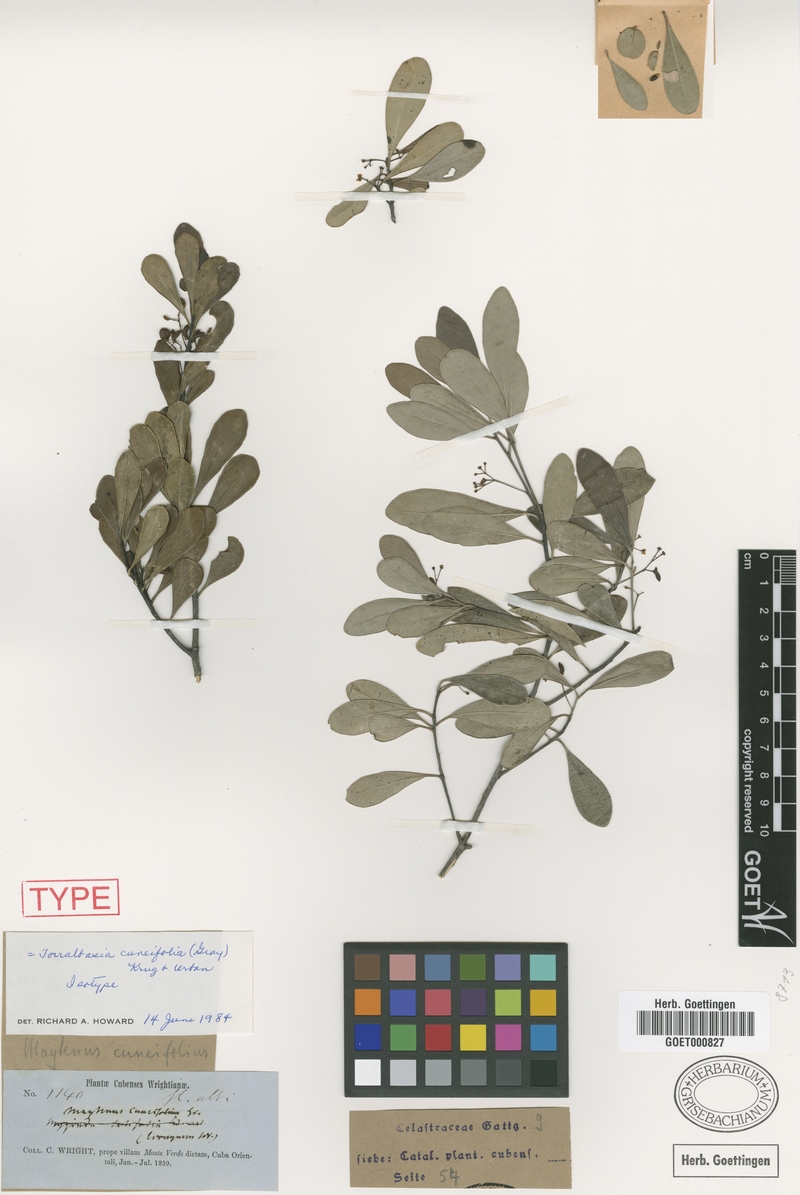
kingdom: Plantae
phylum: Tracheophyta
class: Magnoliopsida
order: Celastrales
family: Celastraceae
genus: Torralbasia
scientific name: Torralbasia cuneifolia
